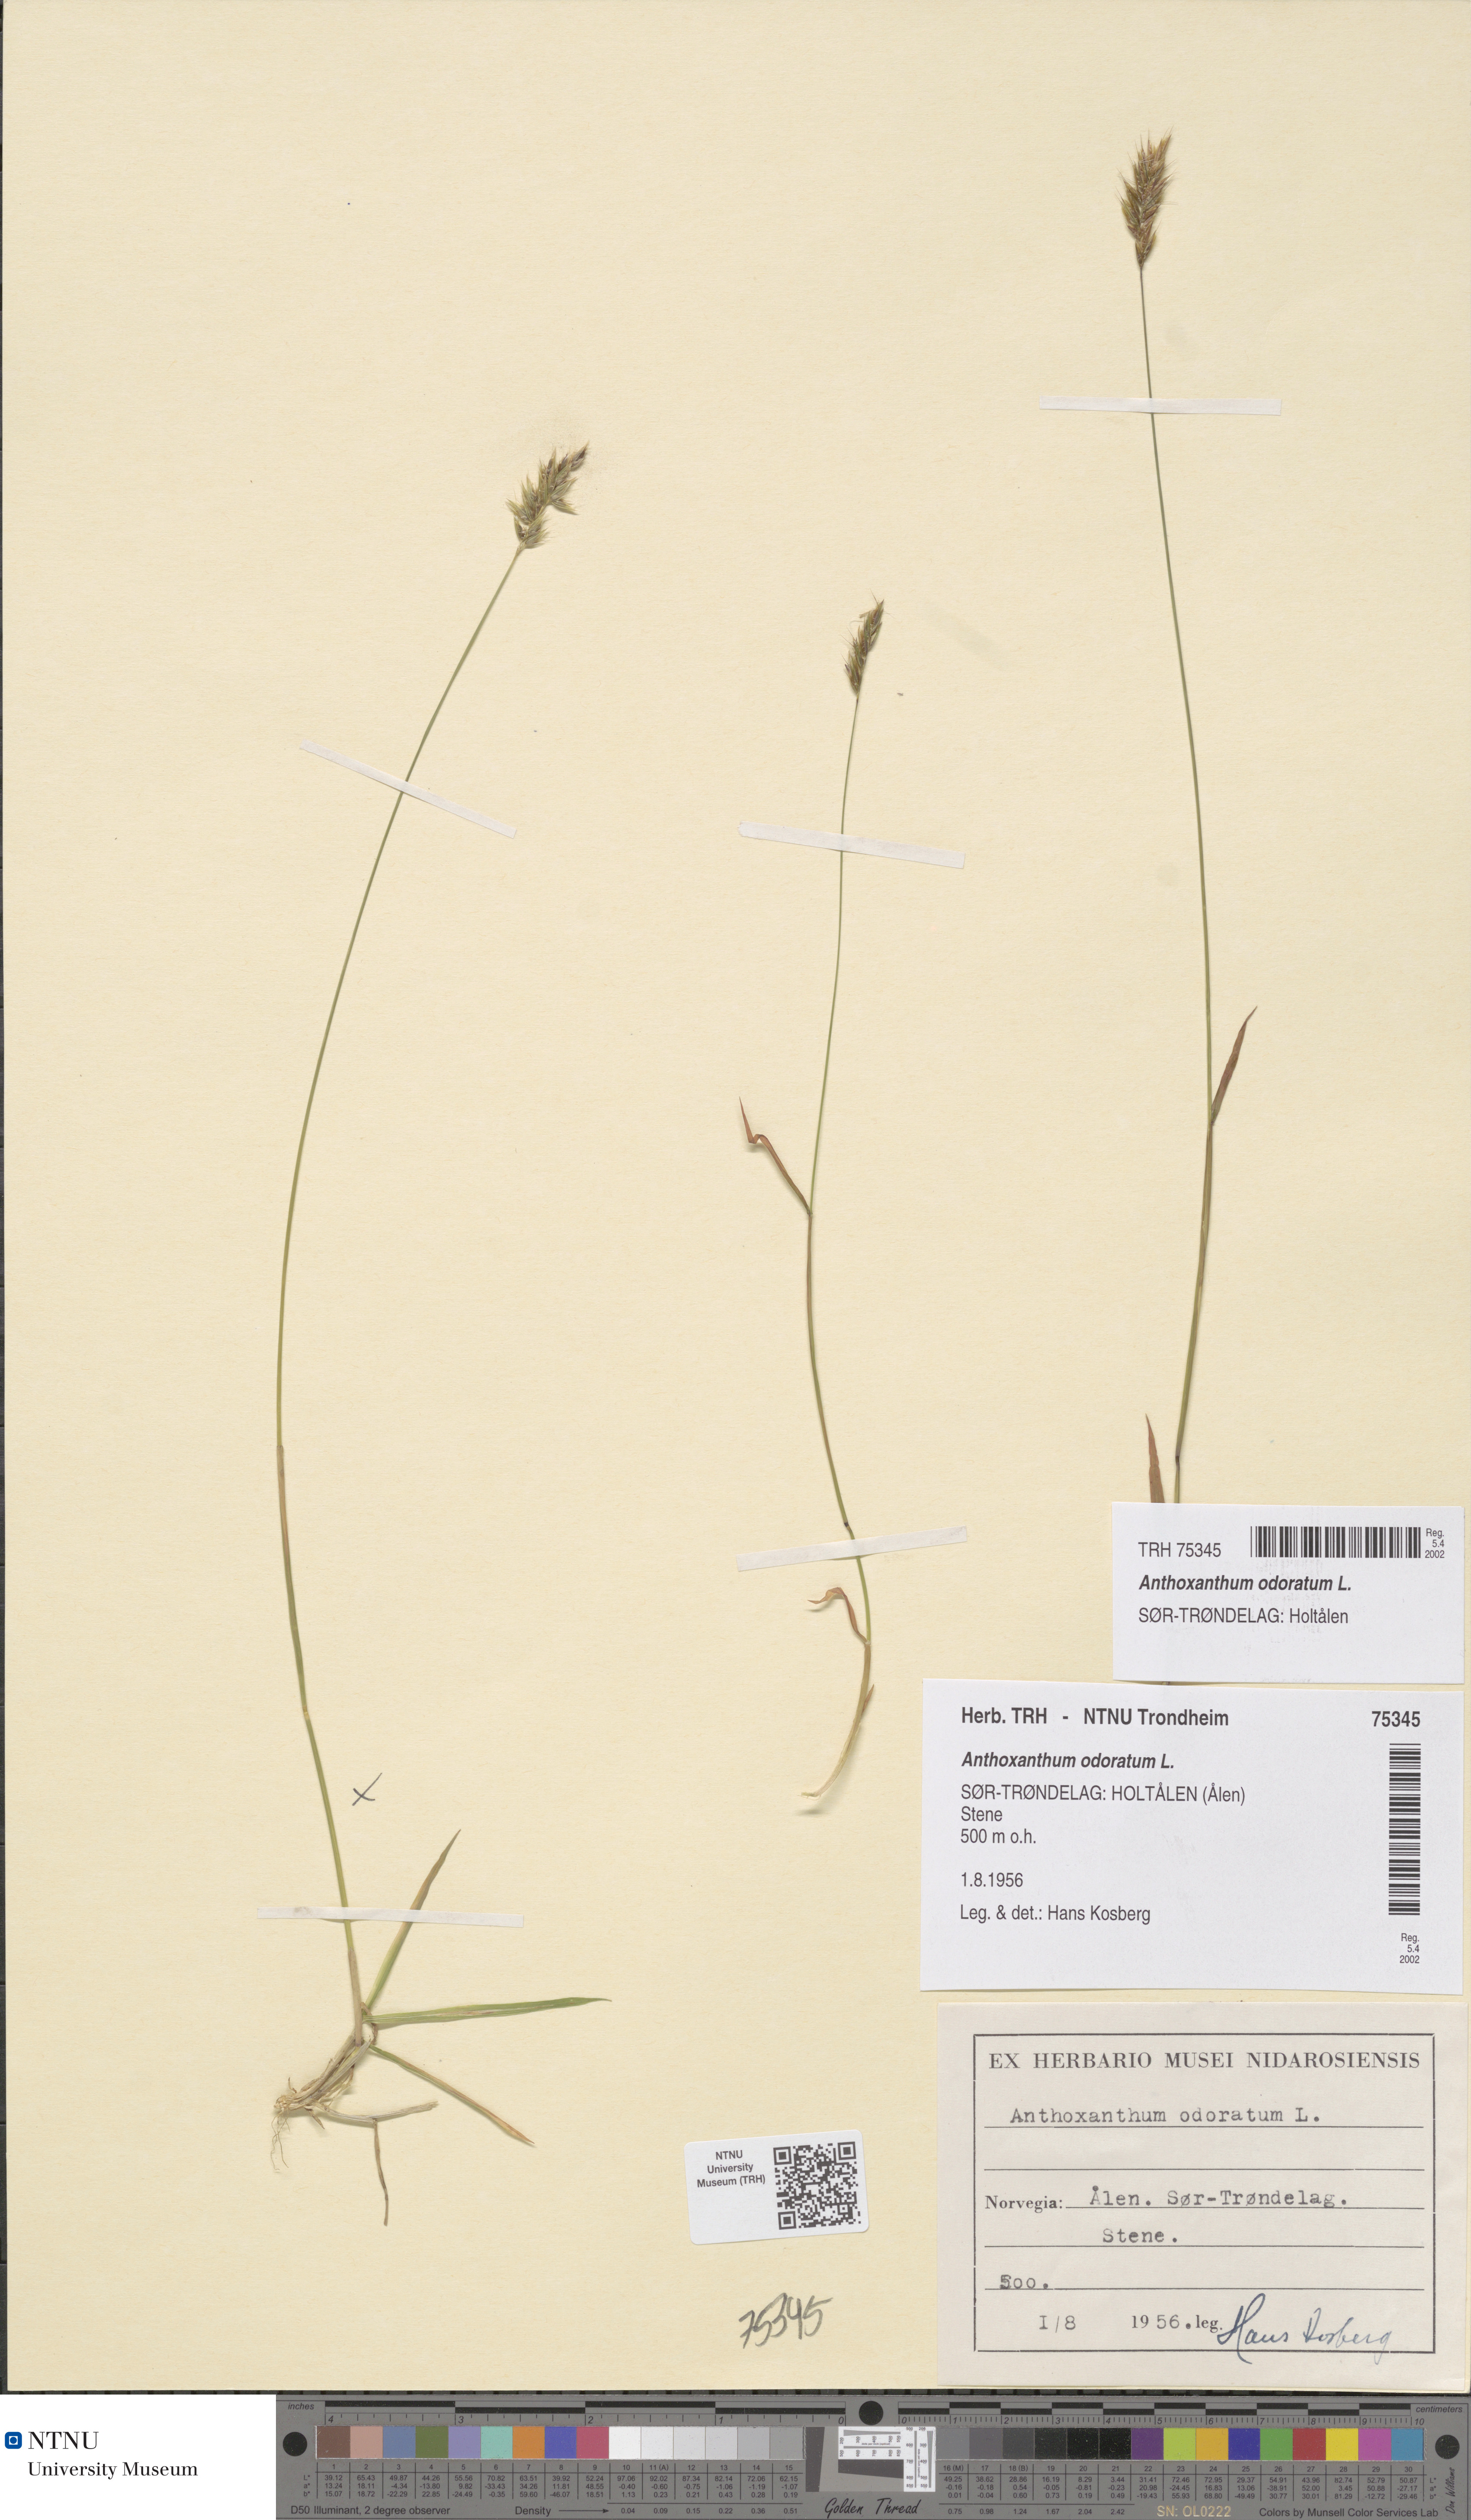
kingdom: Plantae
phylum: Tracheophyta
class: Liliopsida
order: Poales
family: Poaceae
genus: Anthoxanthum
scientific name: Anthoxanthum odoratum
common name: Sweet vernalgrass
